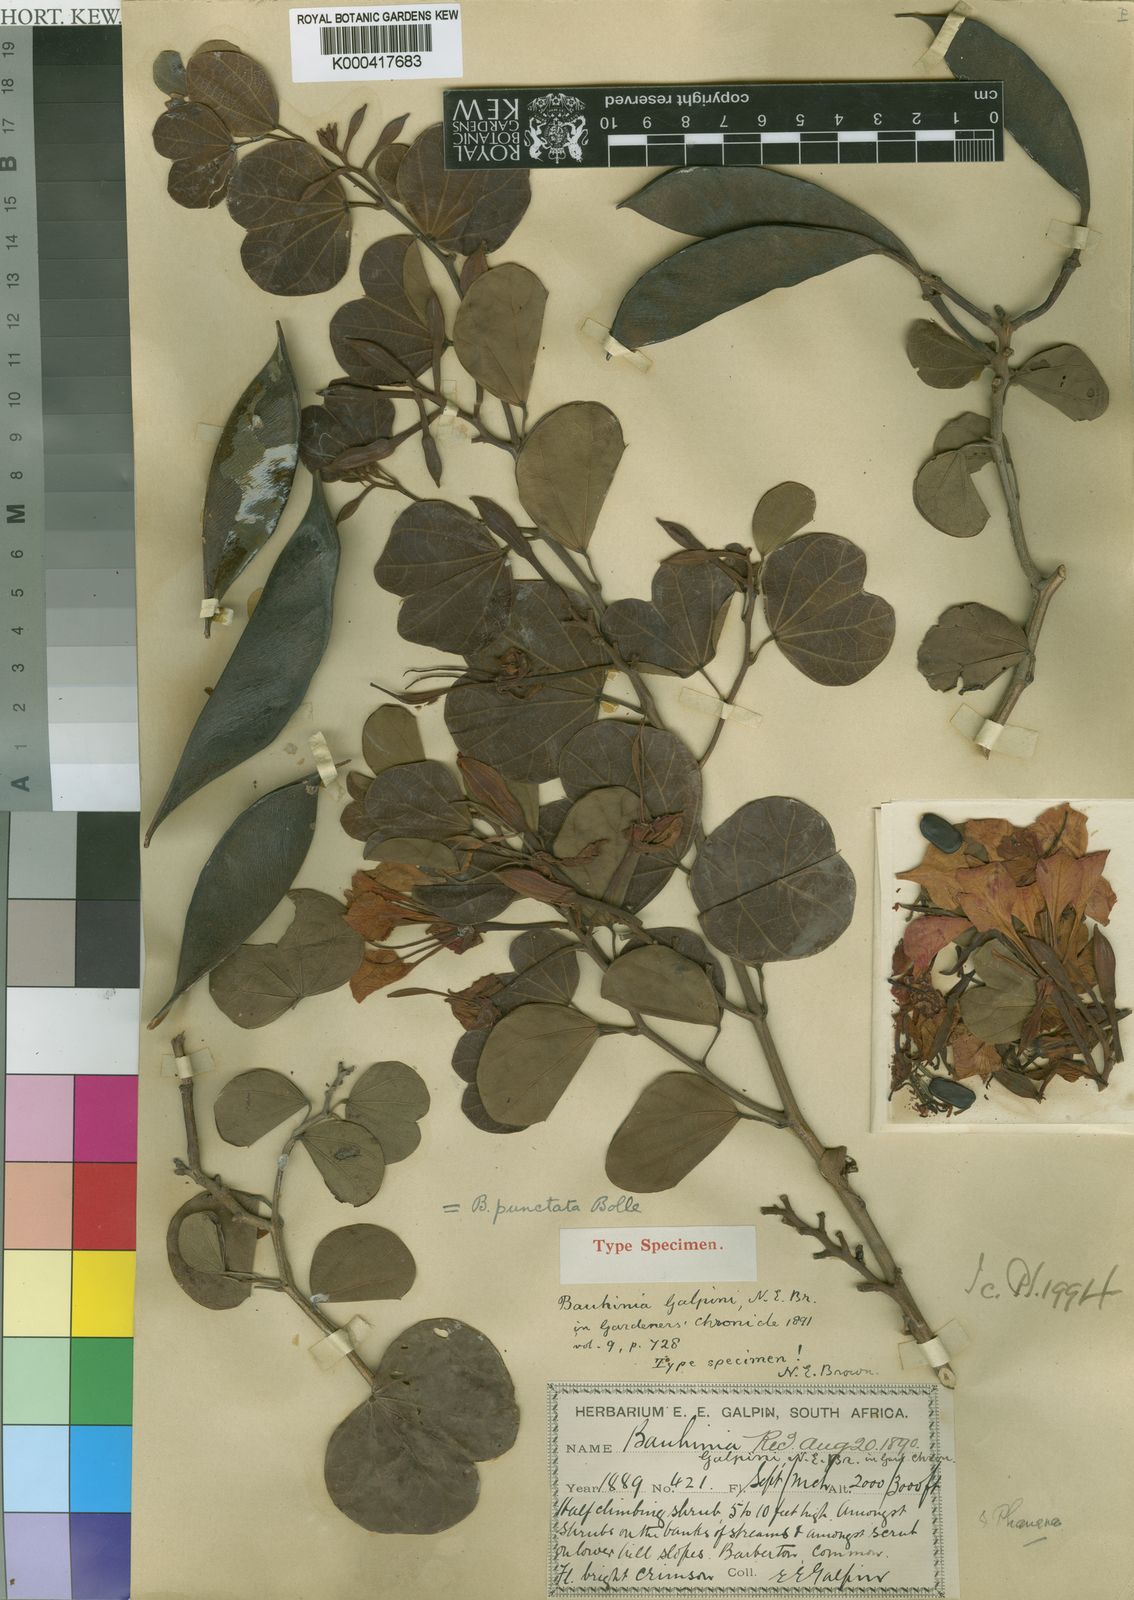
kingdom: Plantae
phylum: Tracheophyta
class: Magnoliopsida
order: Fabales
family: Fabaceae
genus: Bauhinia
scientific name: Bauhinia galpinii
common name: African plume
